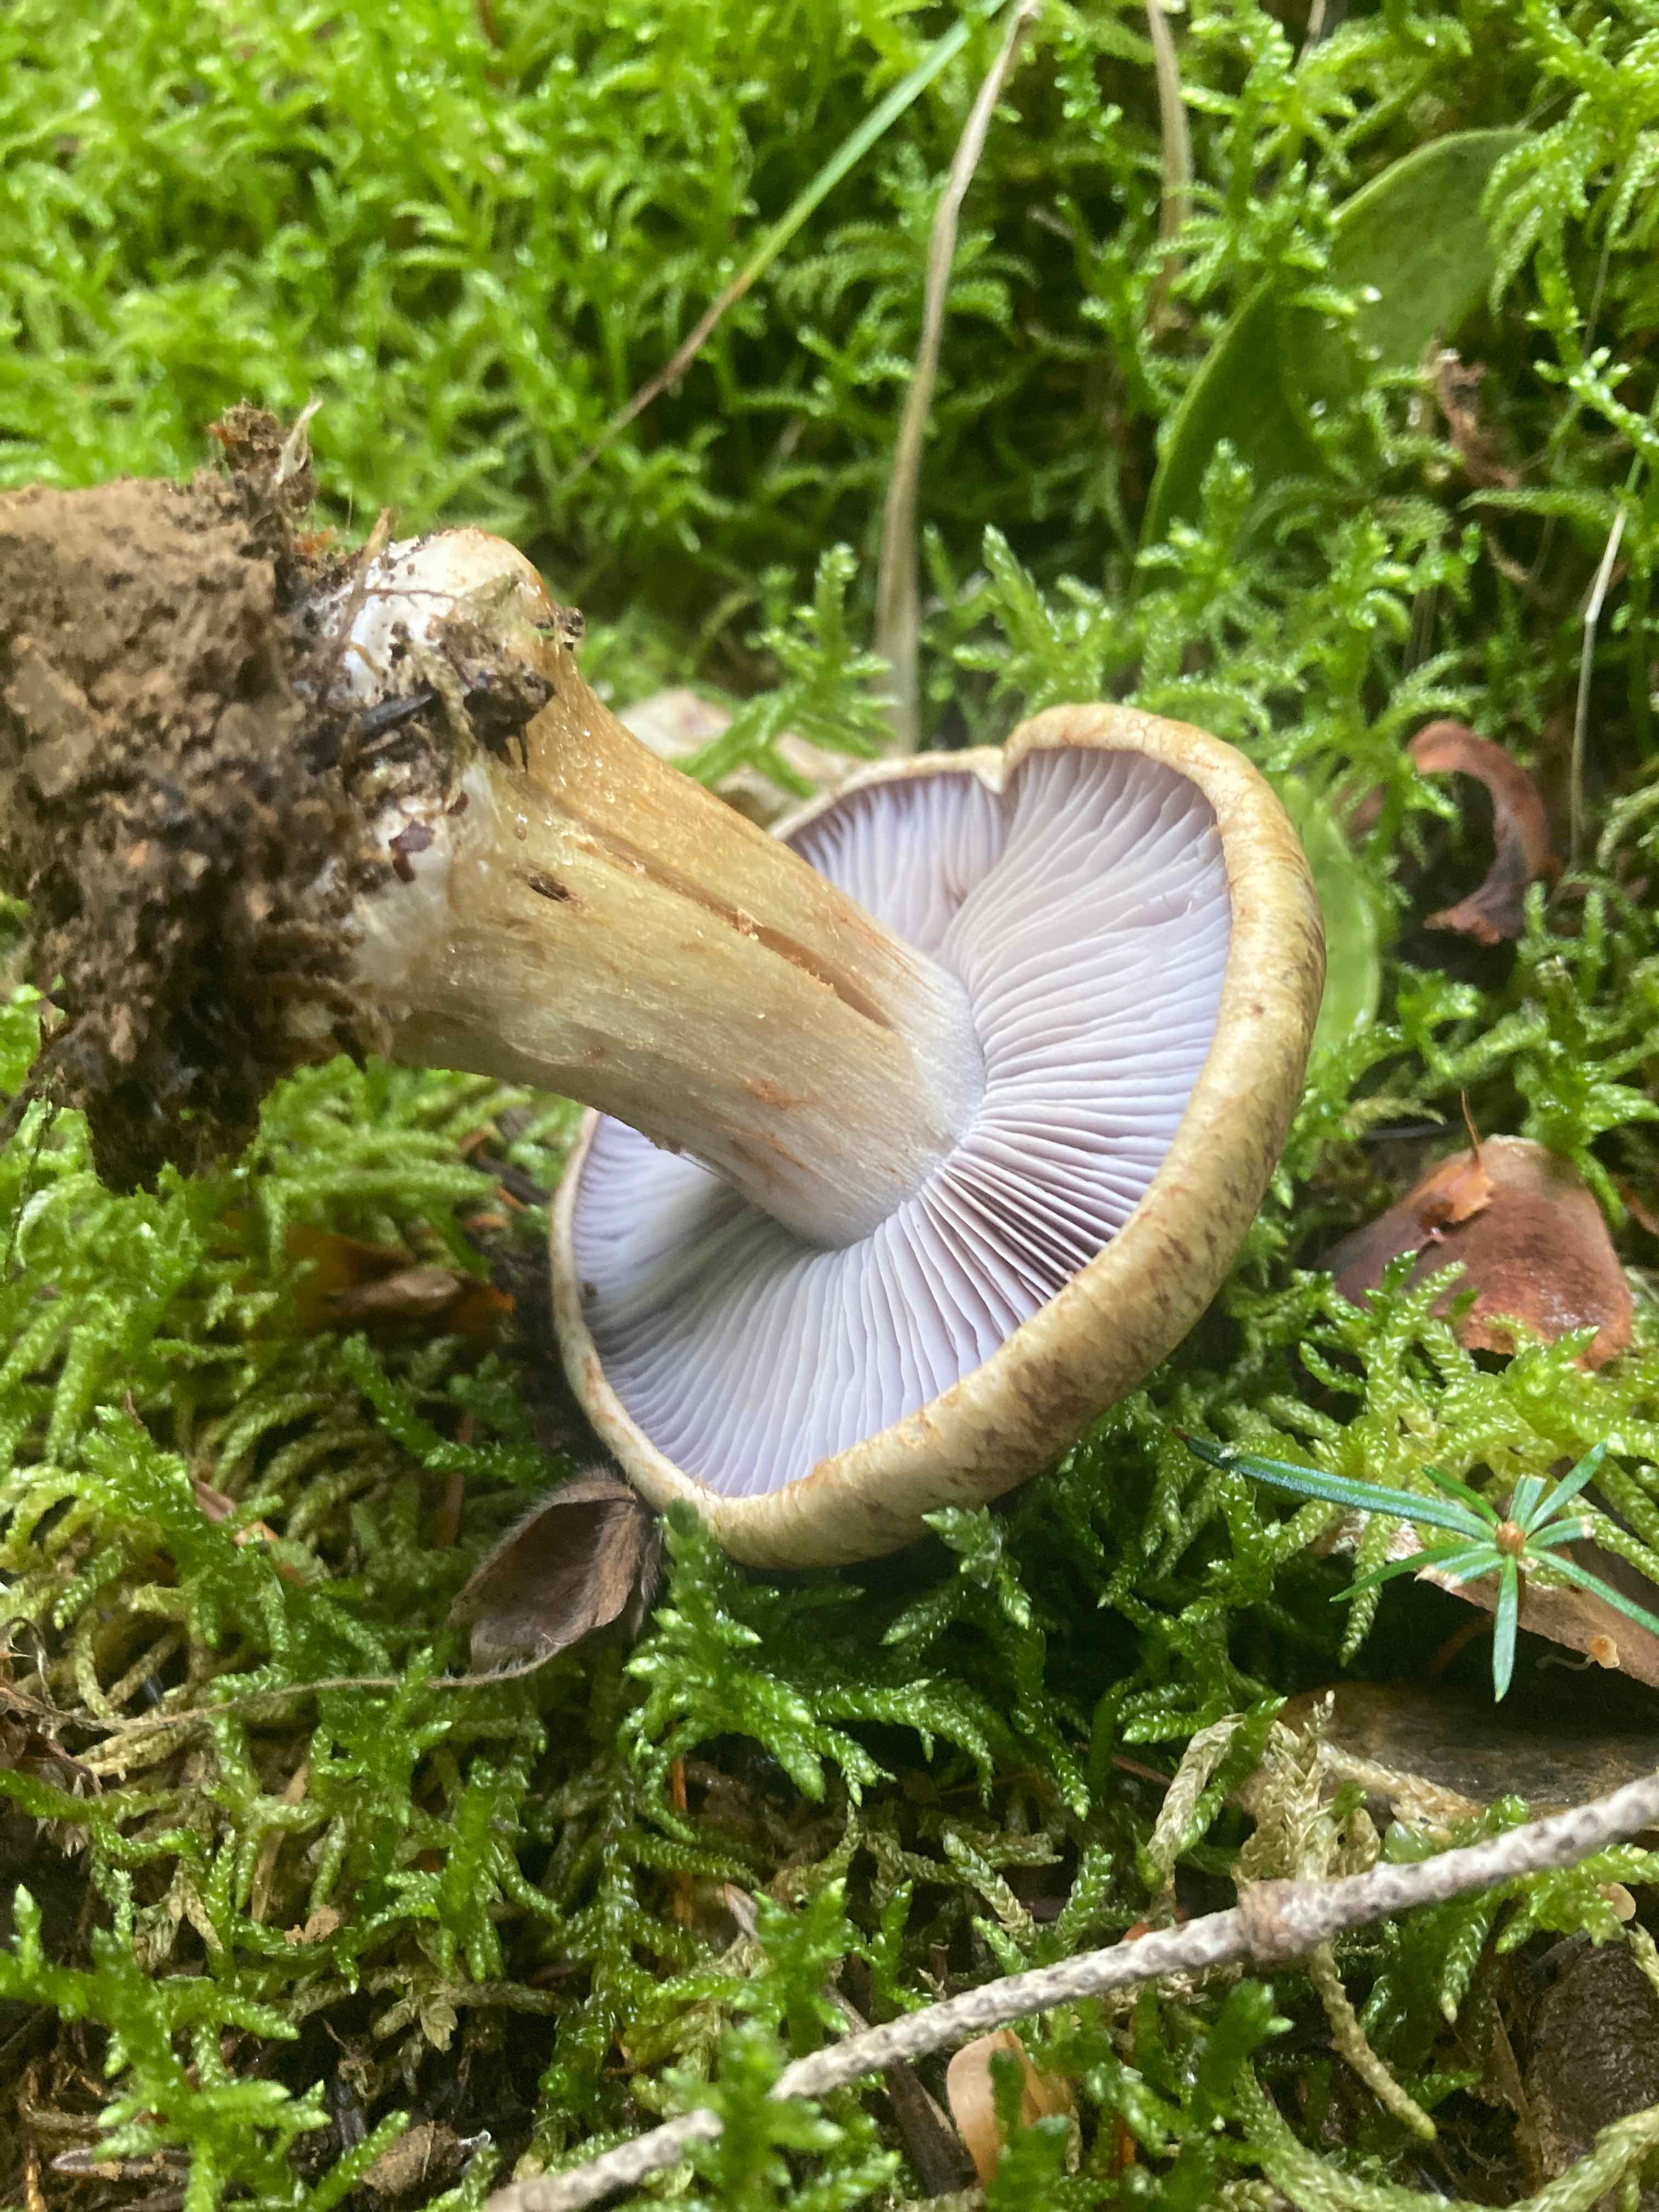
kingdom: Fungi
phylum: Basidiomycota
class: Agaricomycetes
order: Agaricales
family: Cortinariaceae
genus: Cortinarius
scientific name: Cortinarius
